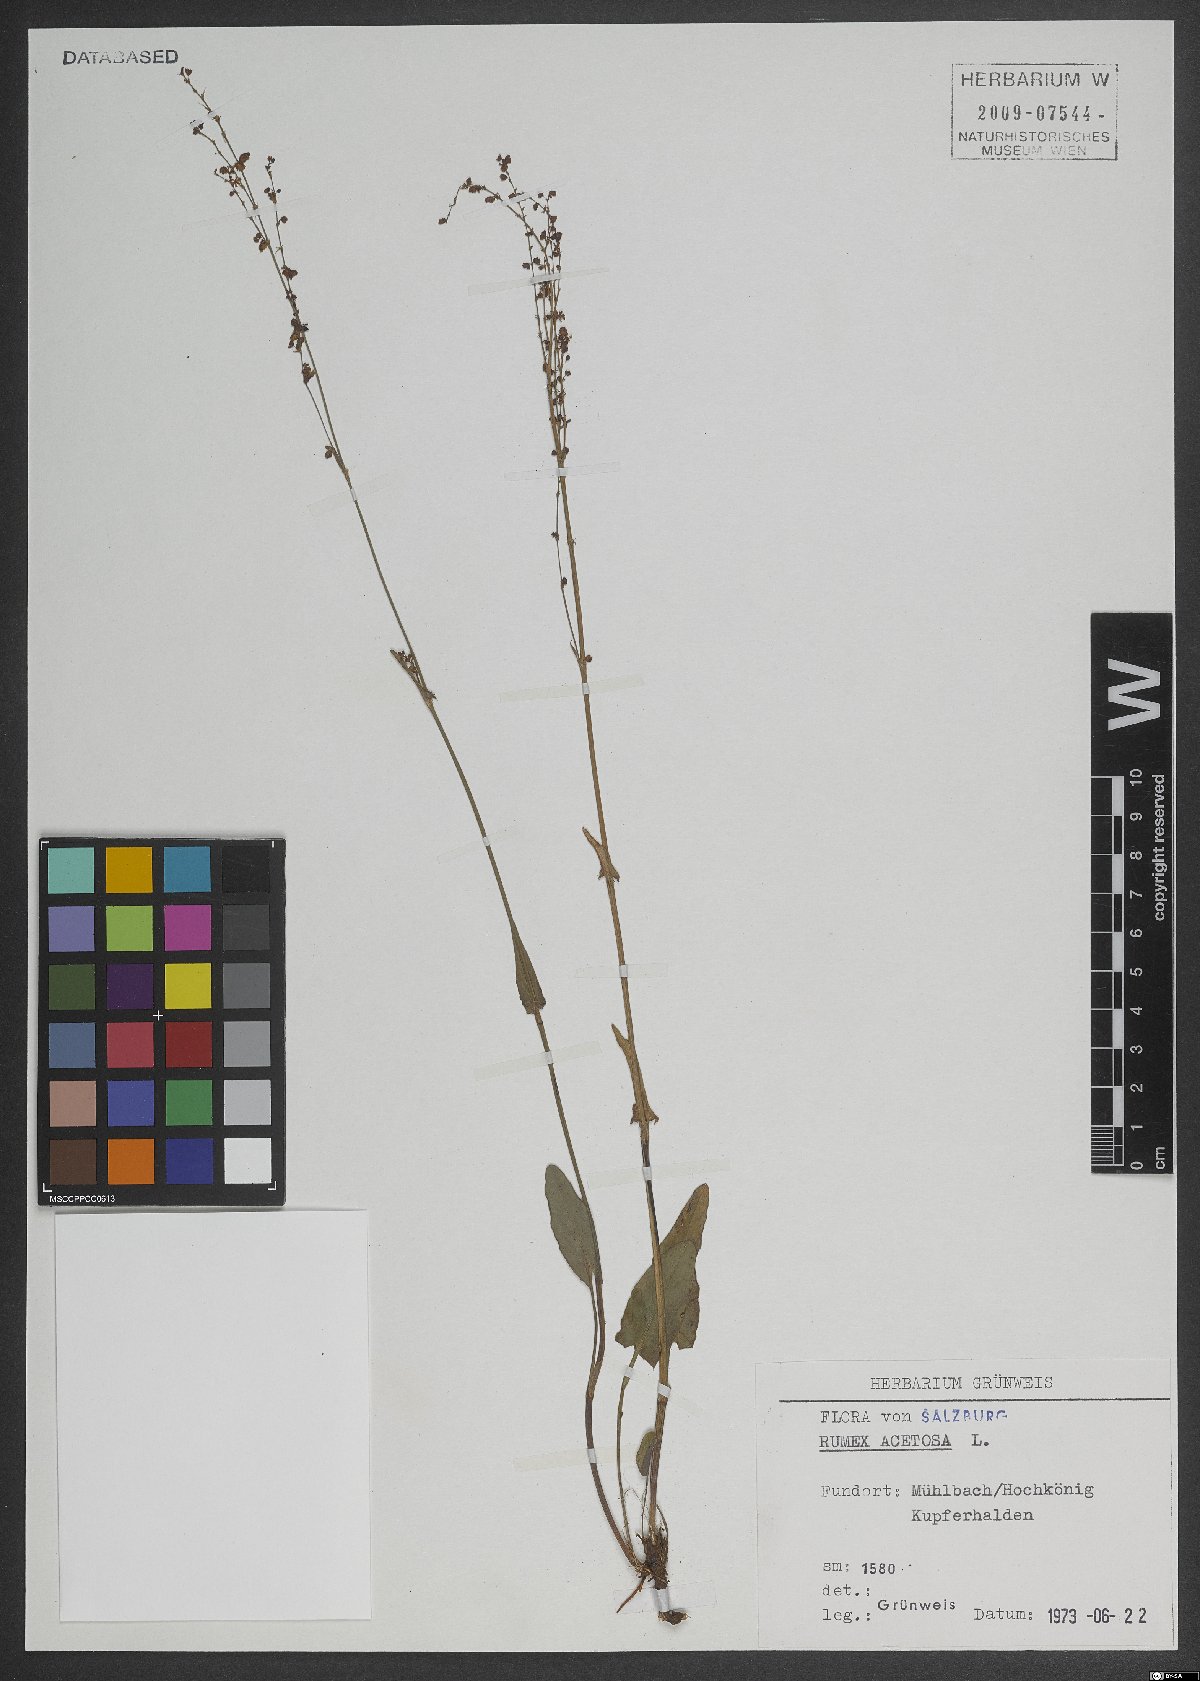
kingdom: Plantae
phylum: Tracheophyta
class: Magnoliopsida
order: Caryophyllales
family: Polygonaceae
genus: Rumex
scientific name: Rumex acetosa
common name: Garden sorrel
